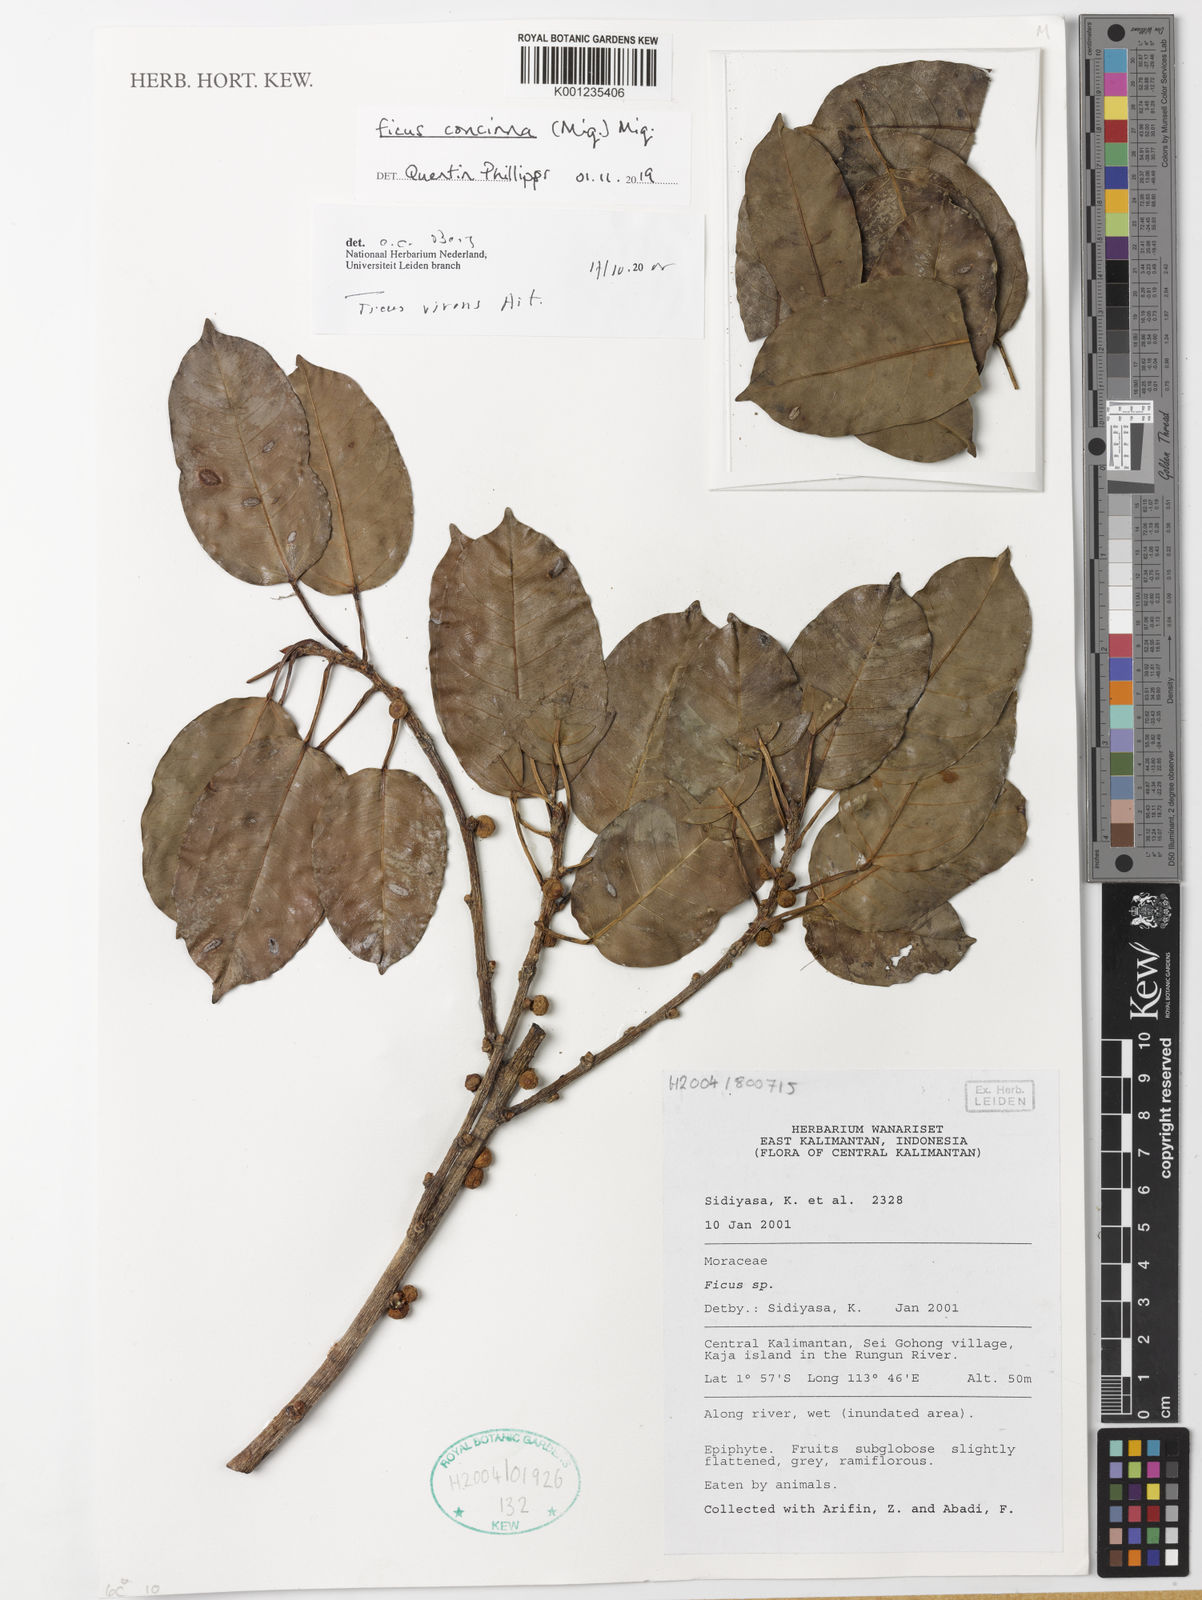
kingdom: Plantae
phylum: Tracheophyta
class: Magnoliopsida
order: Rosales
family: Moraceae
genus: Ficus
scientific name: Ficus concinna
